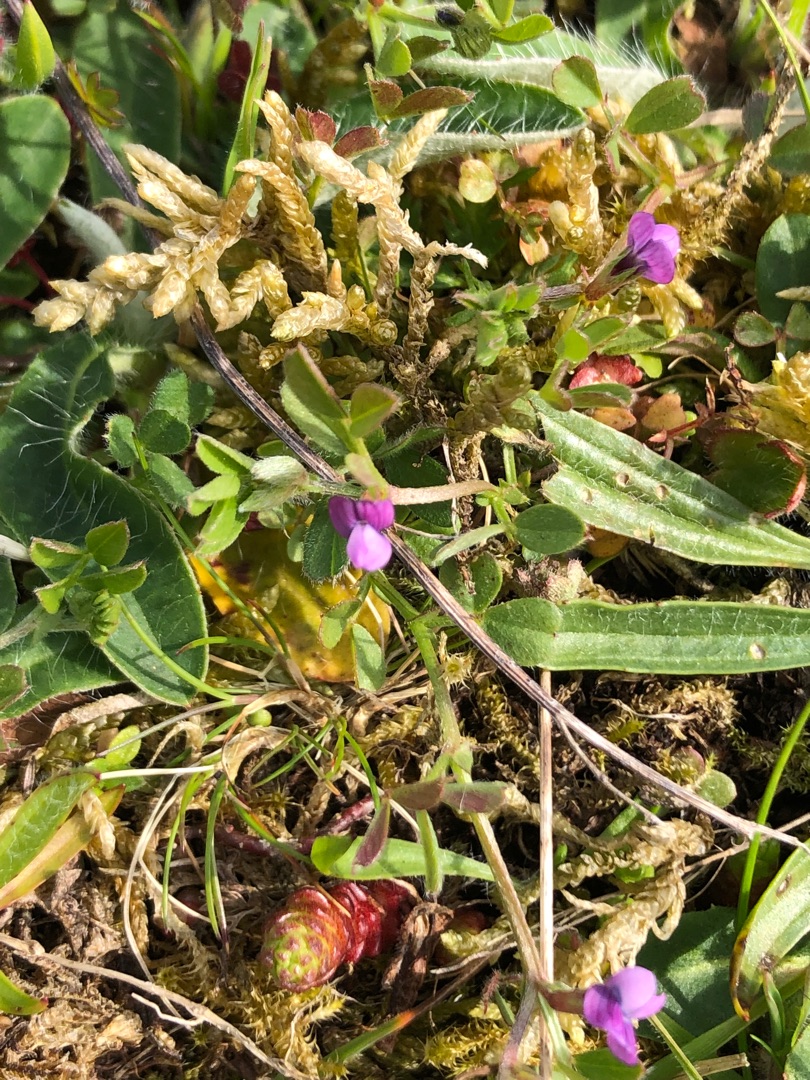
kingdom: Plantae
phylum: Tracheophyta
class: Magnoliopsida
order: Fabales
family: Fabaceae
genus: Vicia
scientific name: Vicia lathyroides
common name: Vår-vikke
